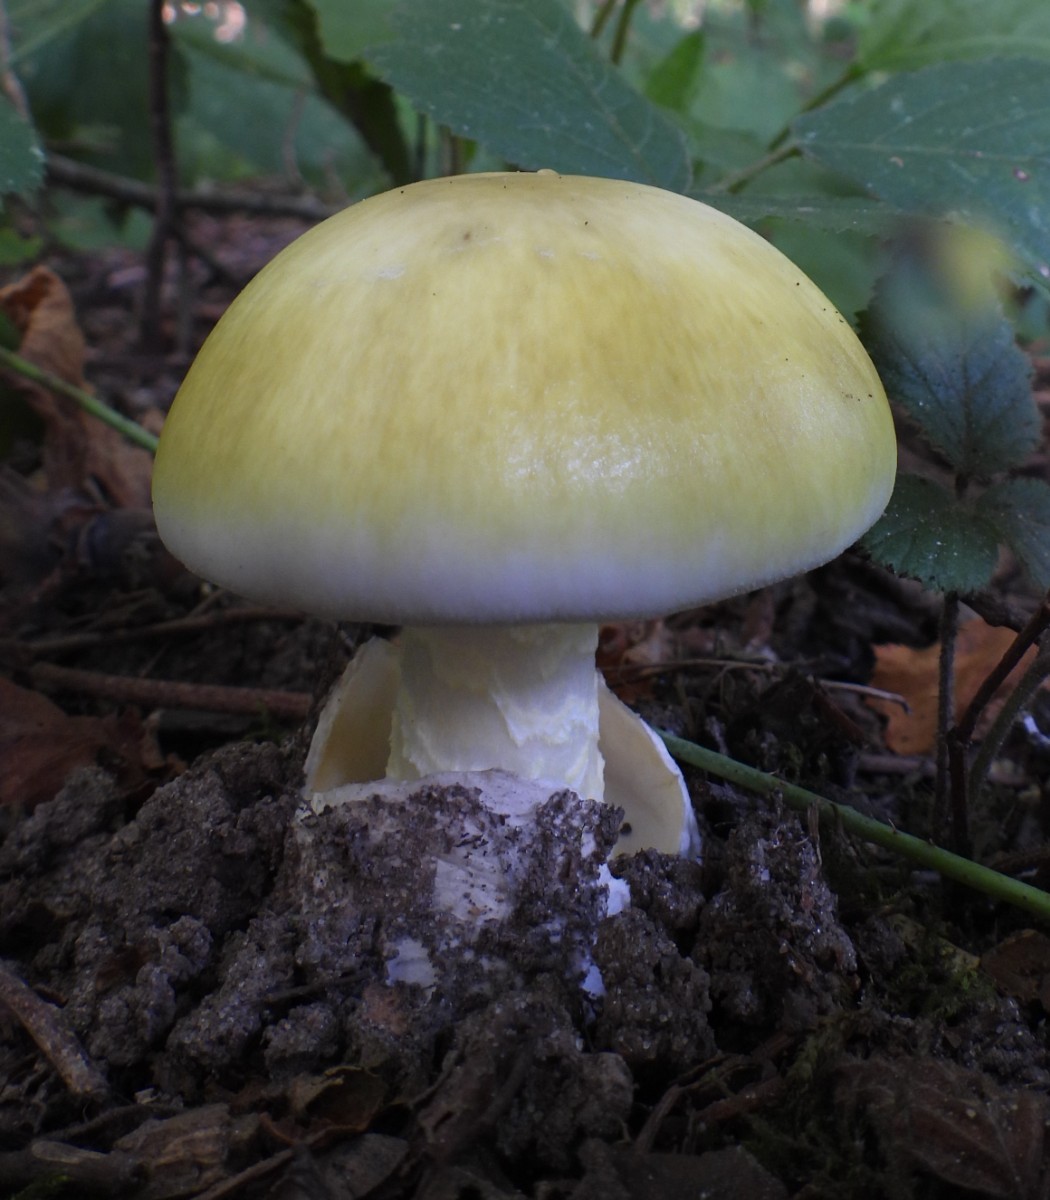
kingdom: Fungi
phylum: Basidiomycota
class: Agaricomycetes
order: Agaricales
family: Amanitaceae
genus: Amanita
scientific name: Amanita phalloides
